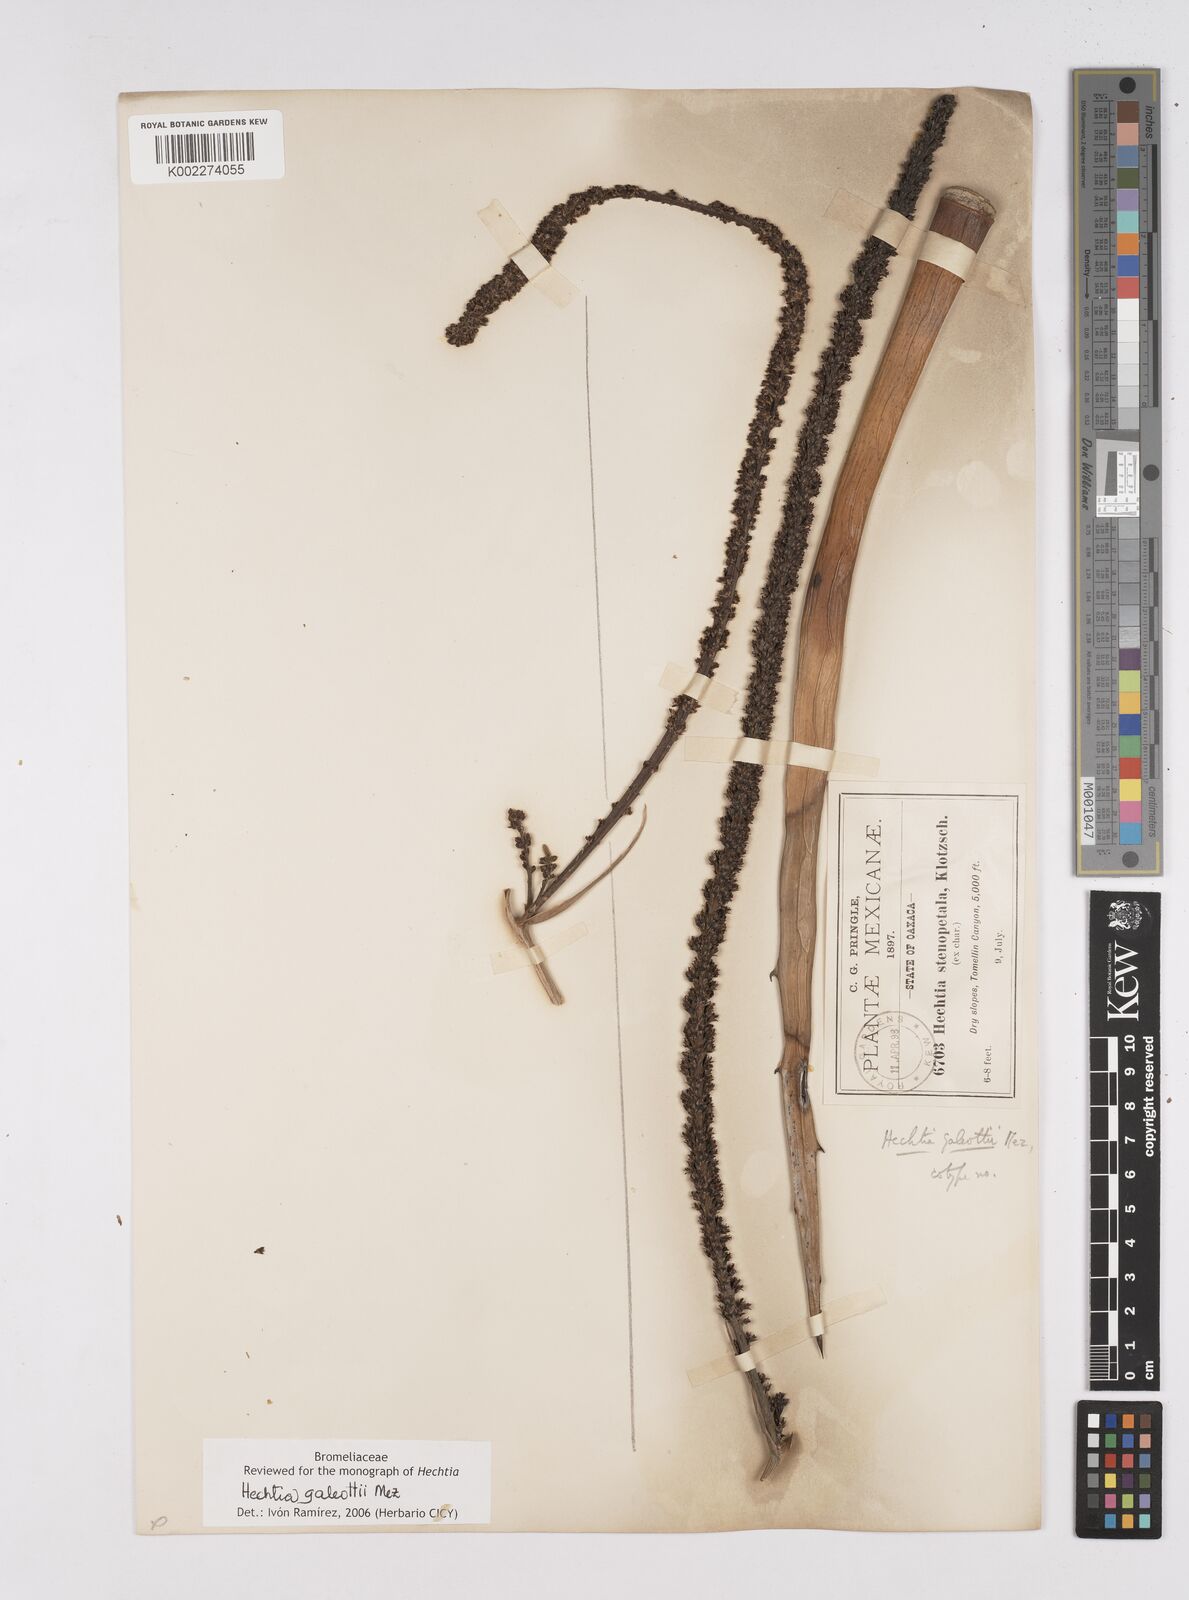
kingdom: Plantae
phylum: Tracheophyta
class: Liliopsida
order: Poales
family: Bromeliaceae
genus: Hechtia
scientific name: Hechtia galeottii
